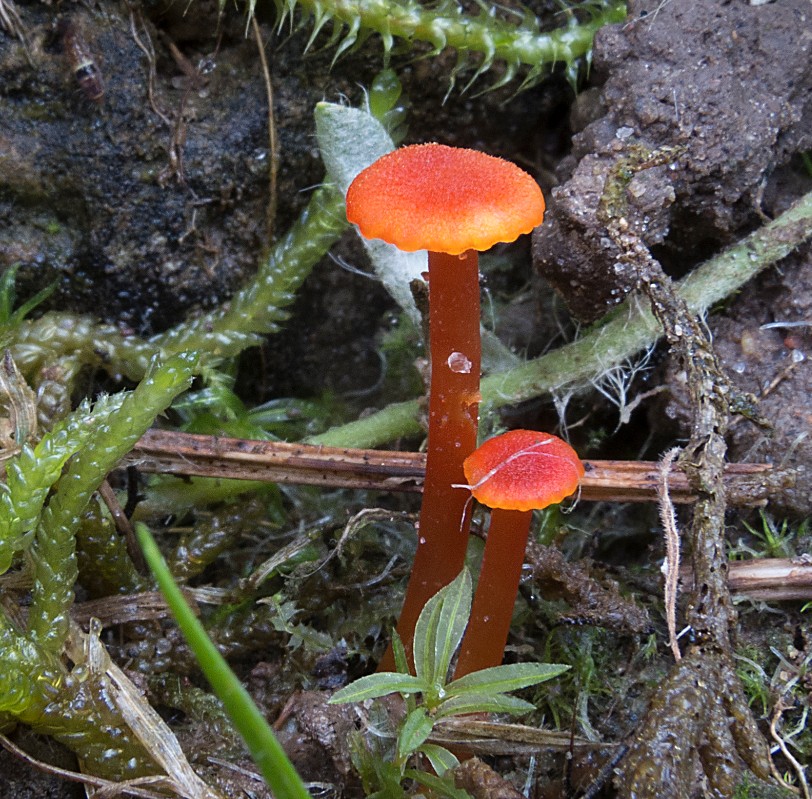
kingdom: Fungi
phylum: Basidiomycota
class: Agaricomycetes
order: Agaricales
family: Hygrophoraceae
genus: Hygrocybe
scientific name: Hygrocybe cantharellus
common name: kantarel-vokshat
